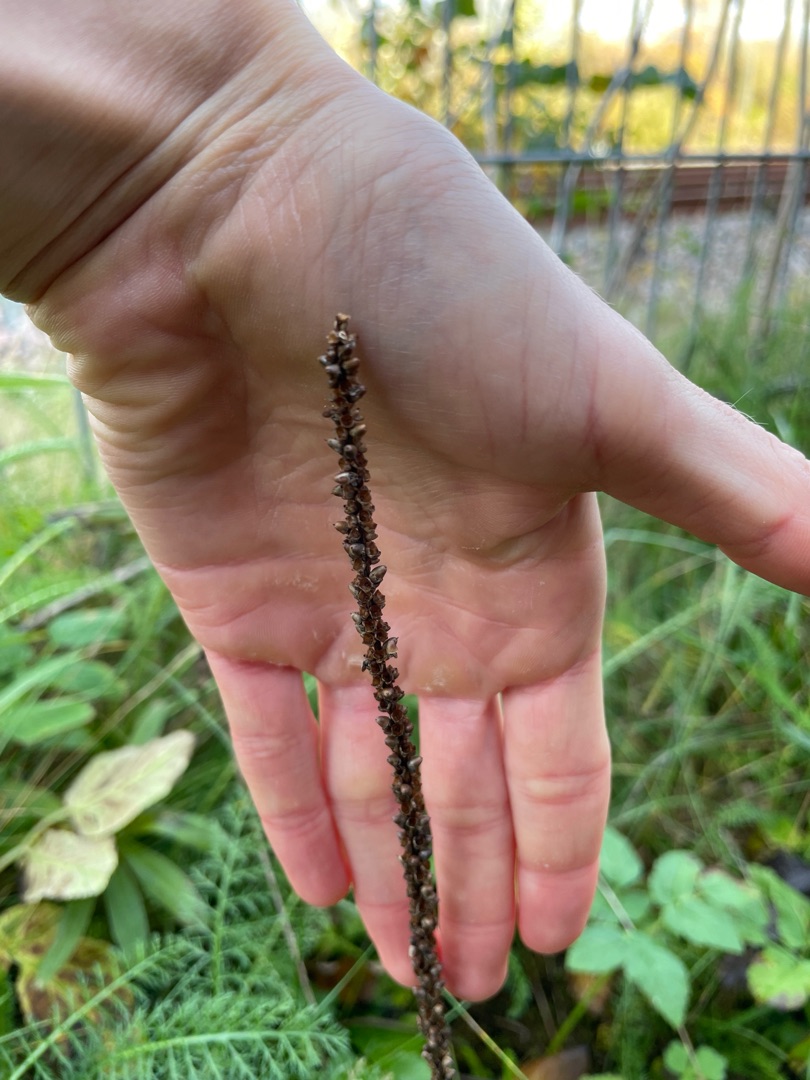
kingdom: Plantae
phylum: Tracheophyta
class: Magnoliopsida
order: Lamiales
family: Plantaginaceae
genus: Plantago
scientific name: Plantago
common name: Vejbredslægten
